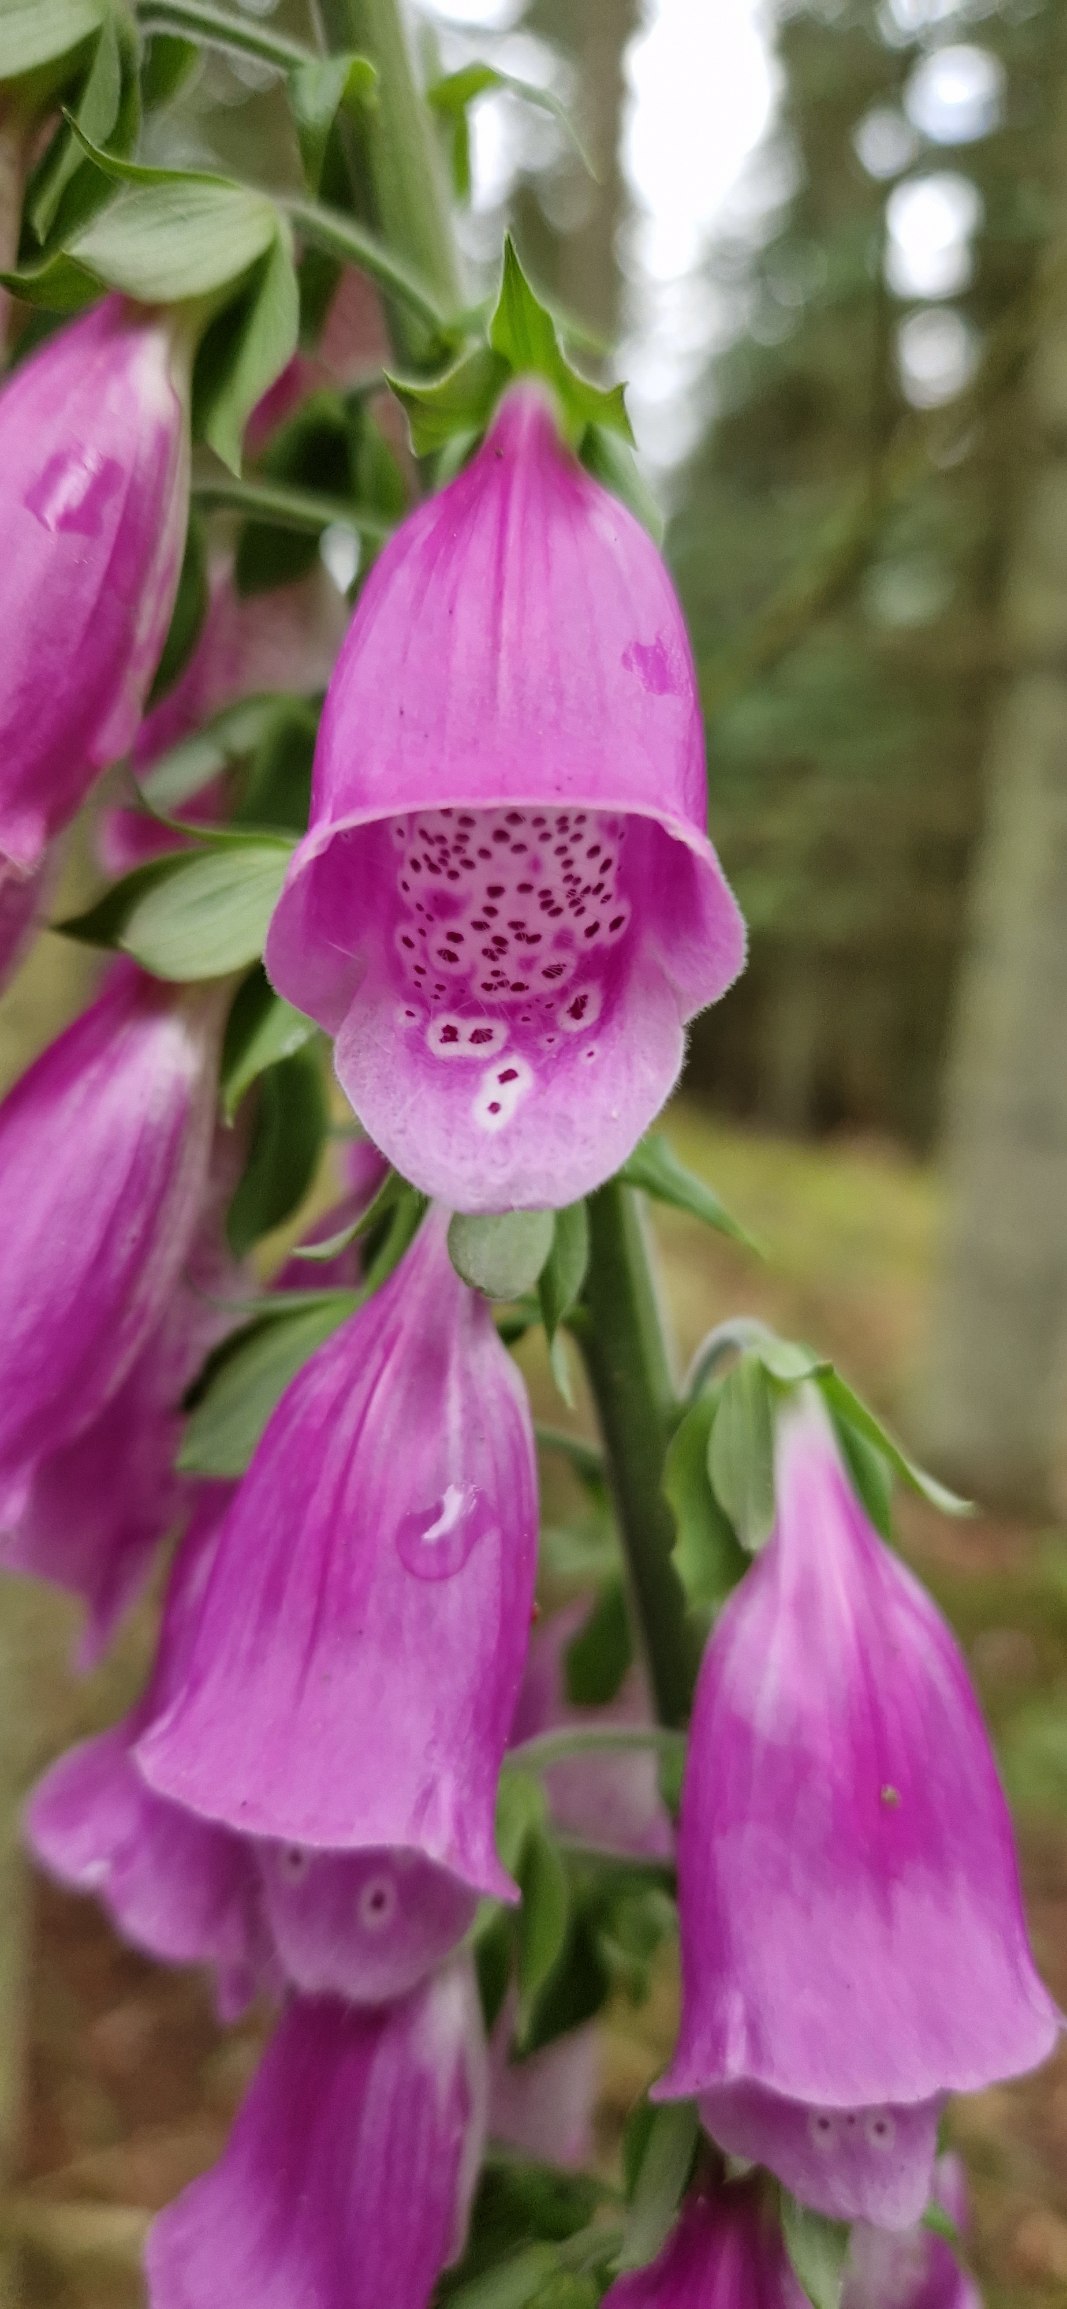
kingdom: Plantae
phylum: Tracheophyta
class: Magnoliopsida
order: Lamiales
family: Plantaginaceae
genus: Digitalis
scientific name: Digitalis purpurea
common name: Almindelig fingerbøl
